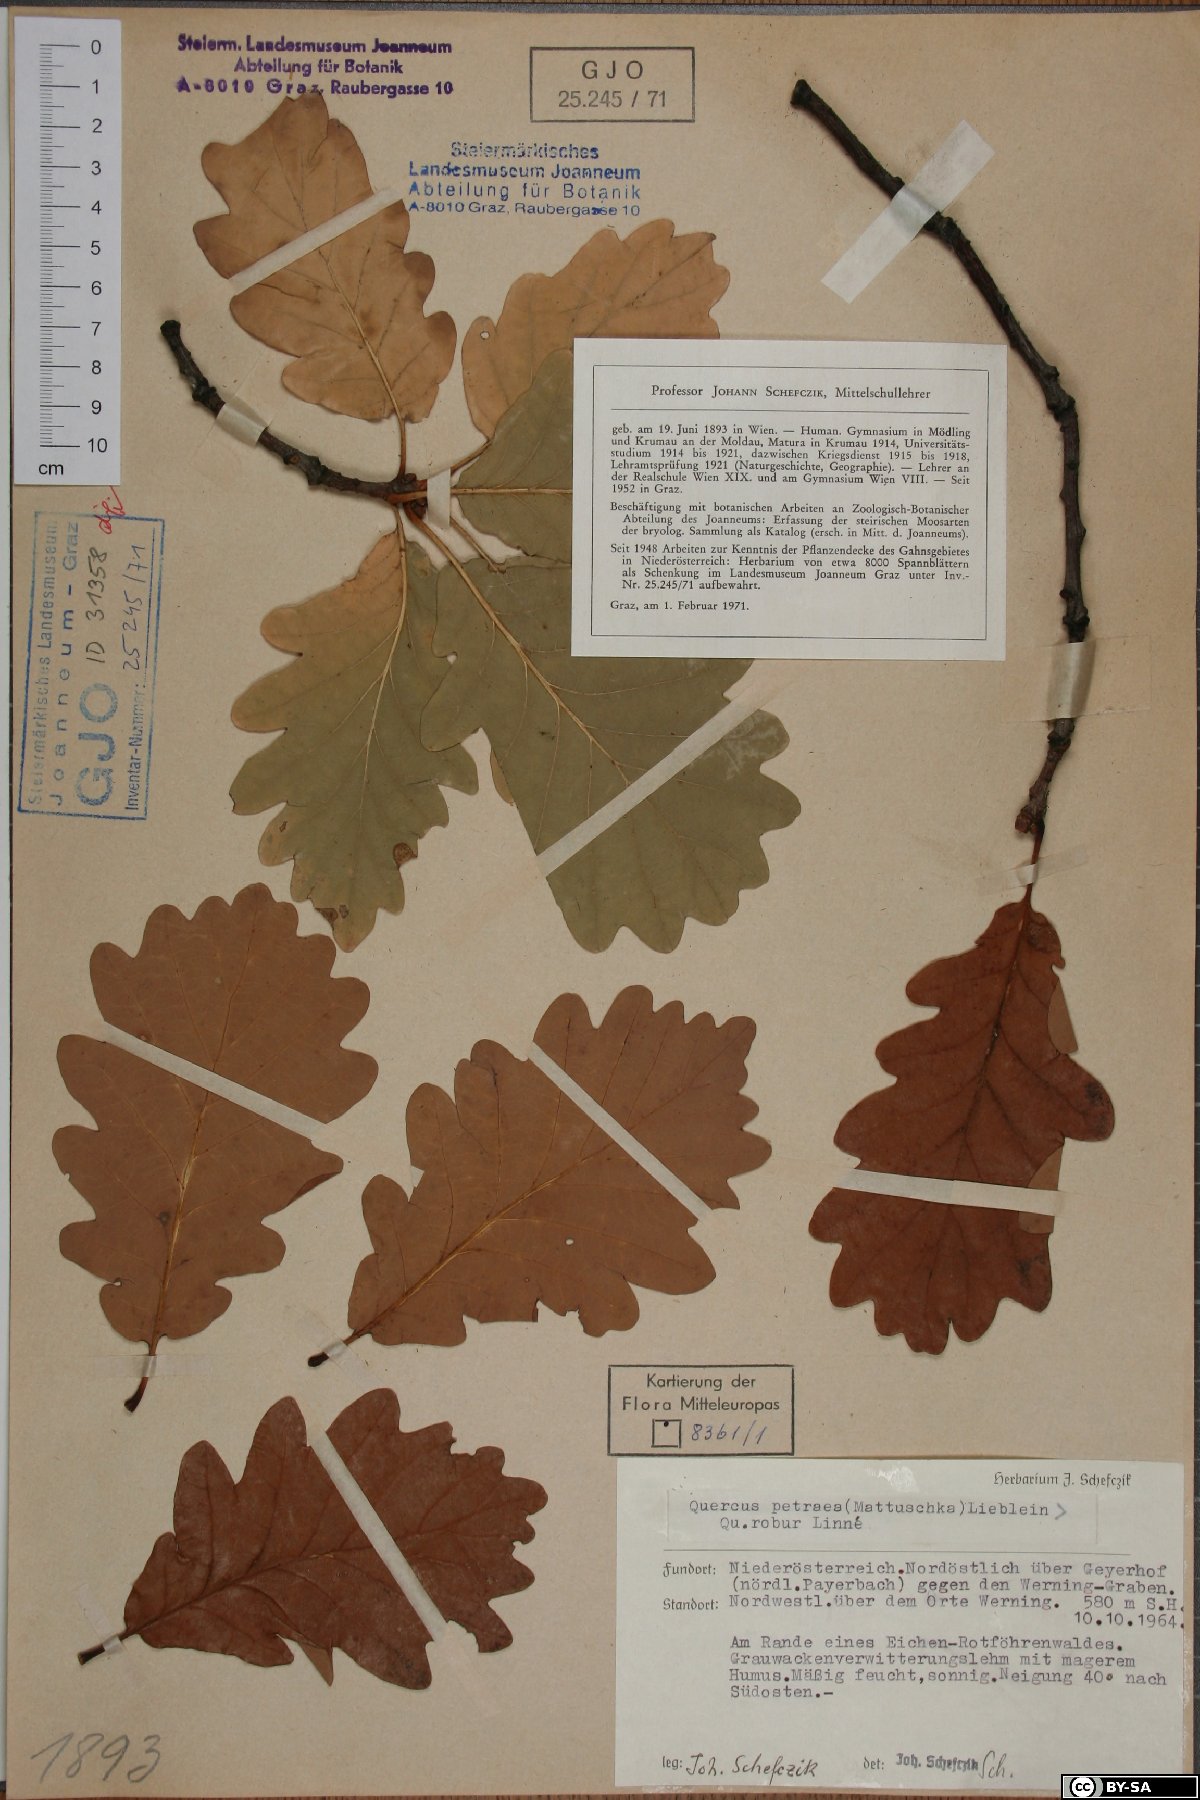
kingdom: Plantae
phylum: Tracheophyta
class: Magnoliopsida
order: Fagales
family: Fagaceae
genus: Quercus
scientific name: Quercus petraea
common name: Sessile oak
